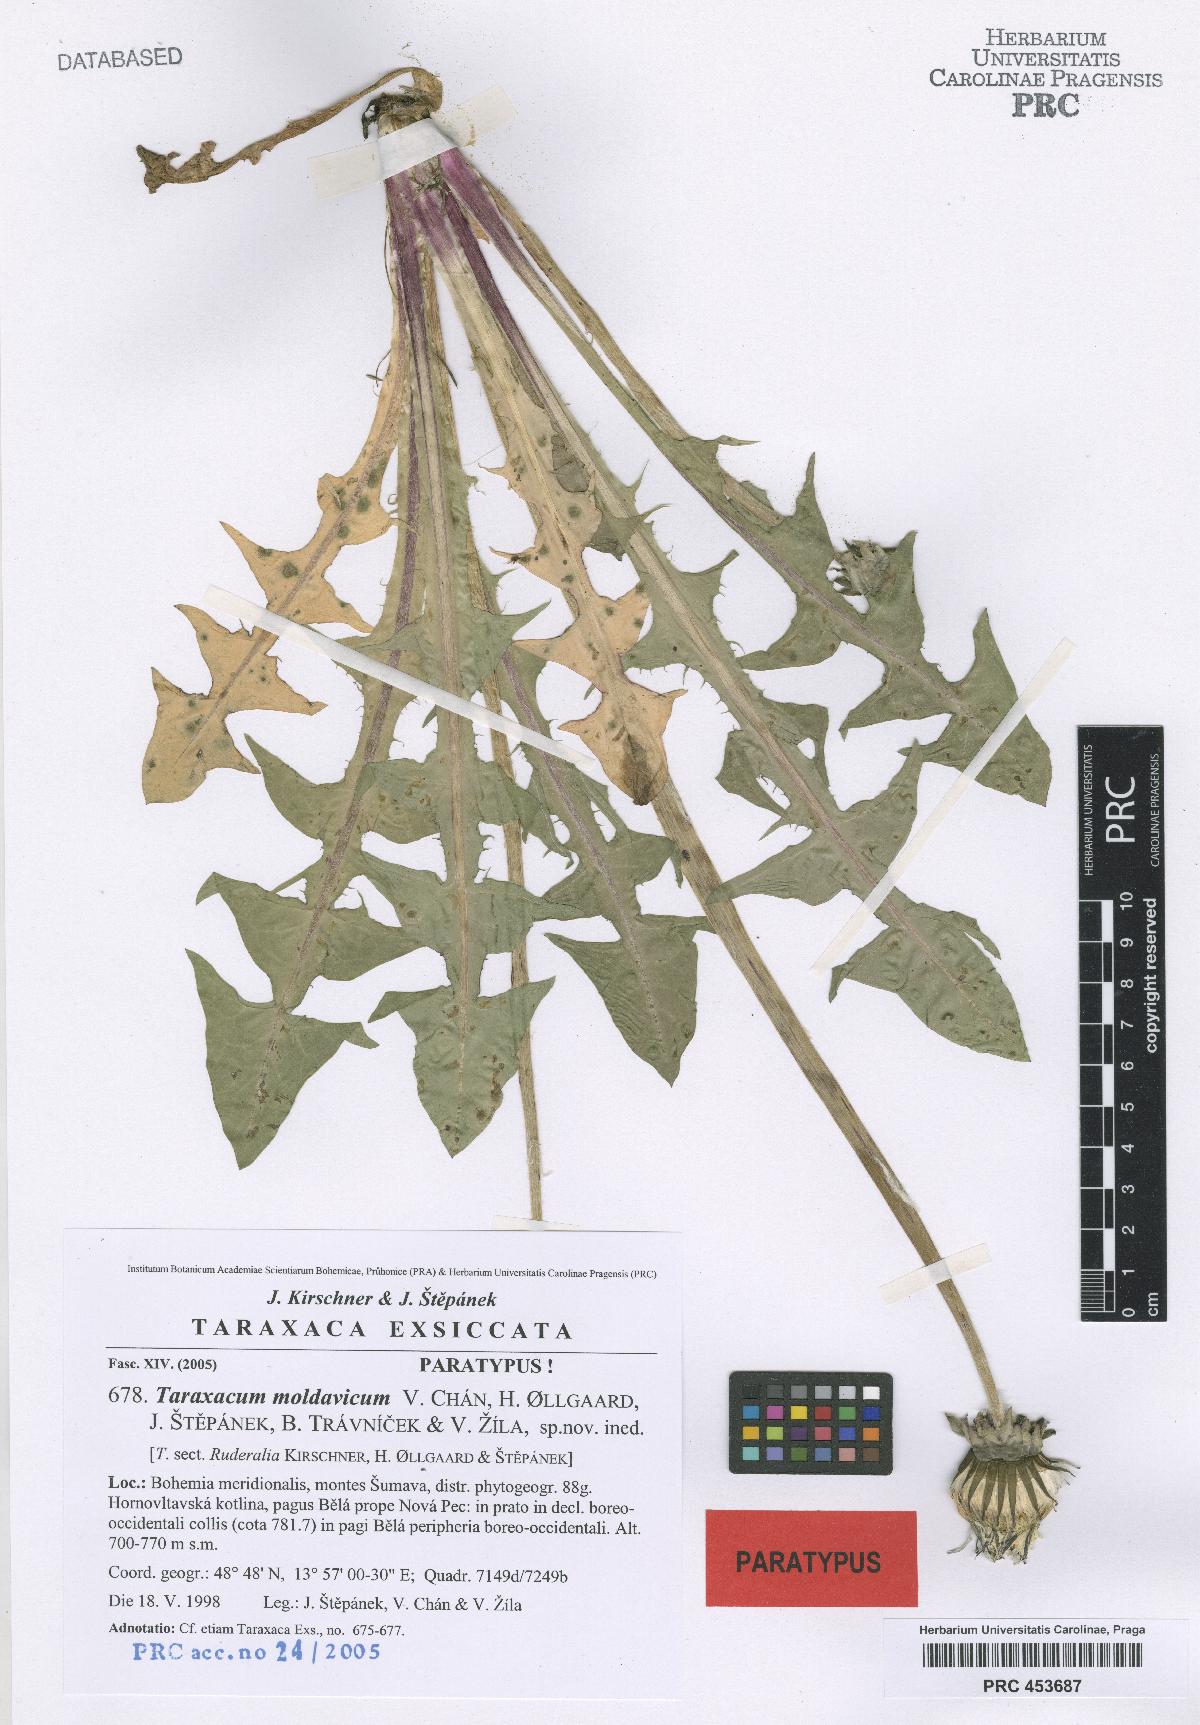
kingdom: Plantae
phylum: Tracheophyta
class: Magnoliopsida
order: Asterales
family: Asteraceae
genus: Taraxacum
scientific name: Taraxacum moldavicum
